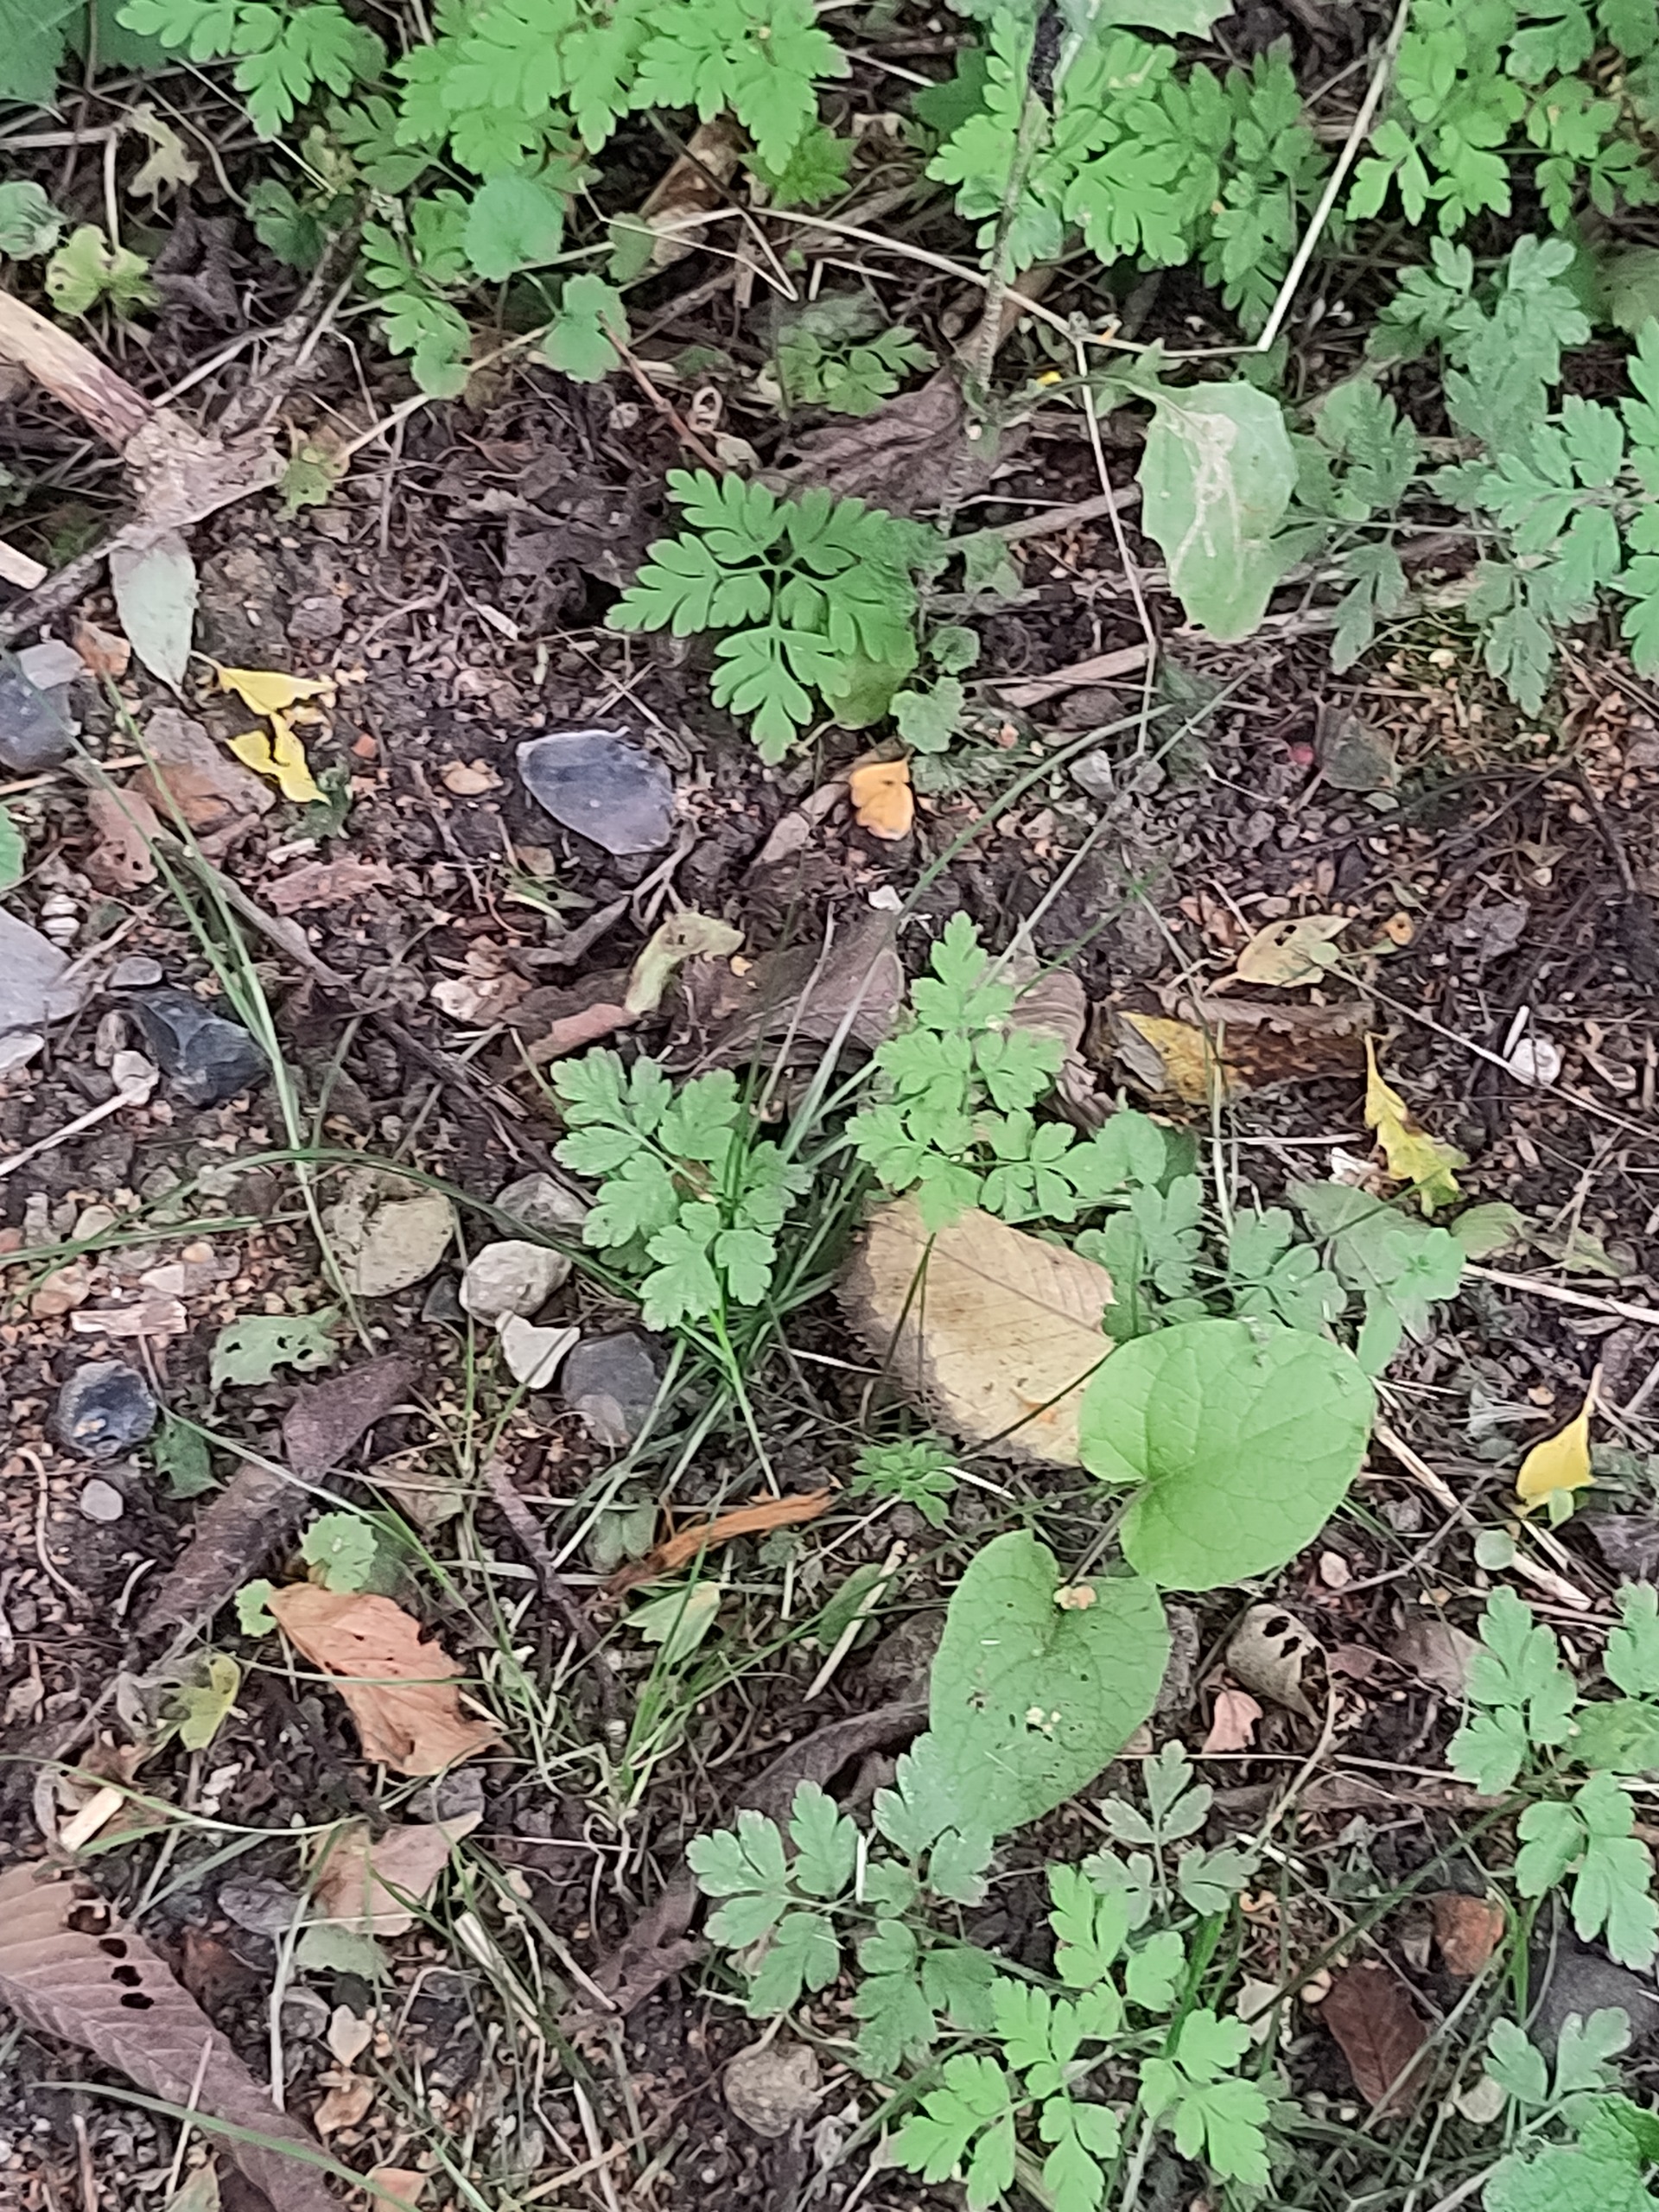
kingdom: Plantae
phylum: Tracheophyta
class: Magnoliopsida
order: Geraniales
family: Geraniaceae
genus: Geranium
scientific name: Geranium robertianum
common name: Stinkende storkenæb
